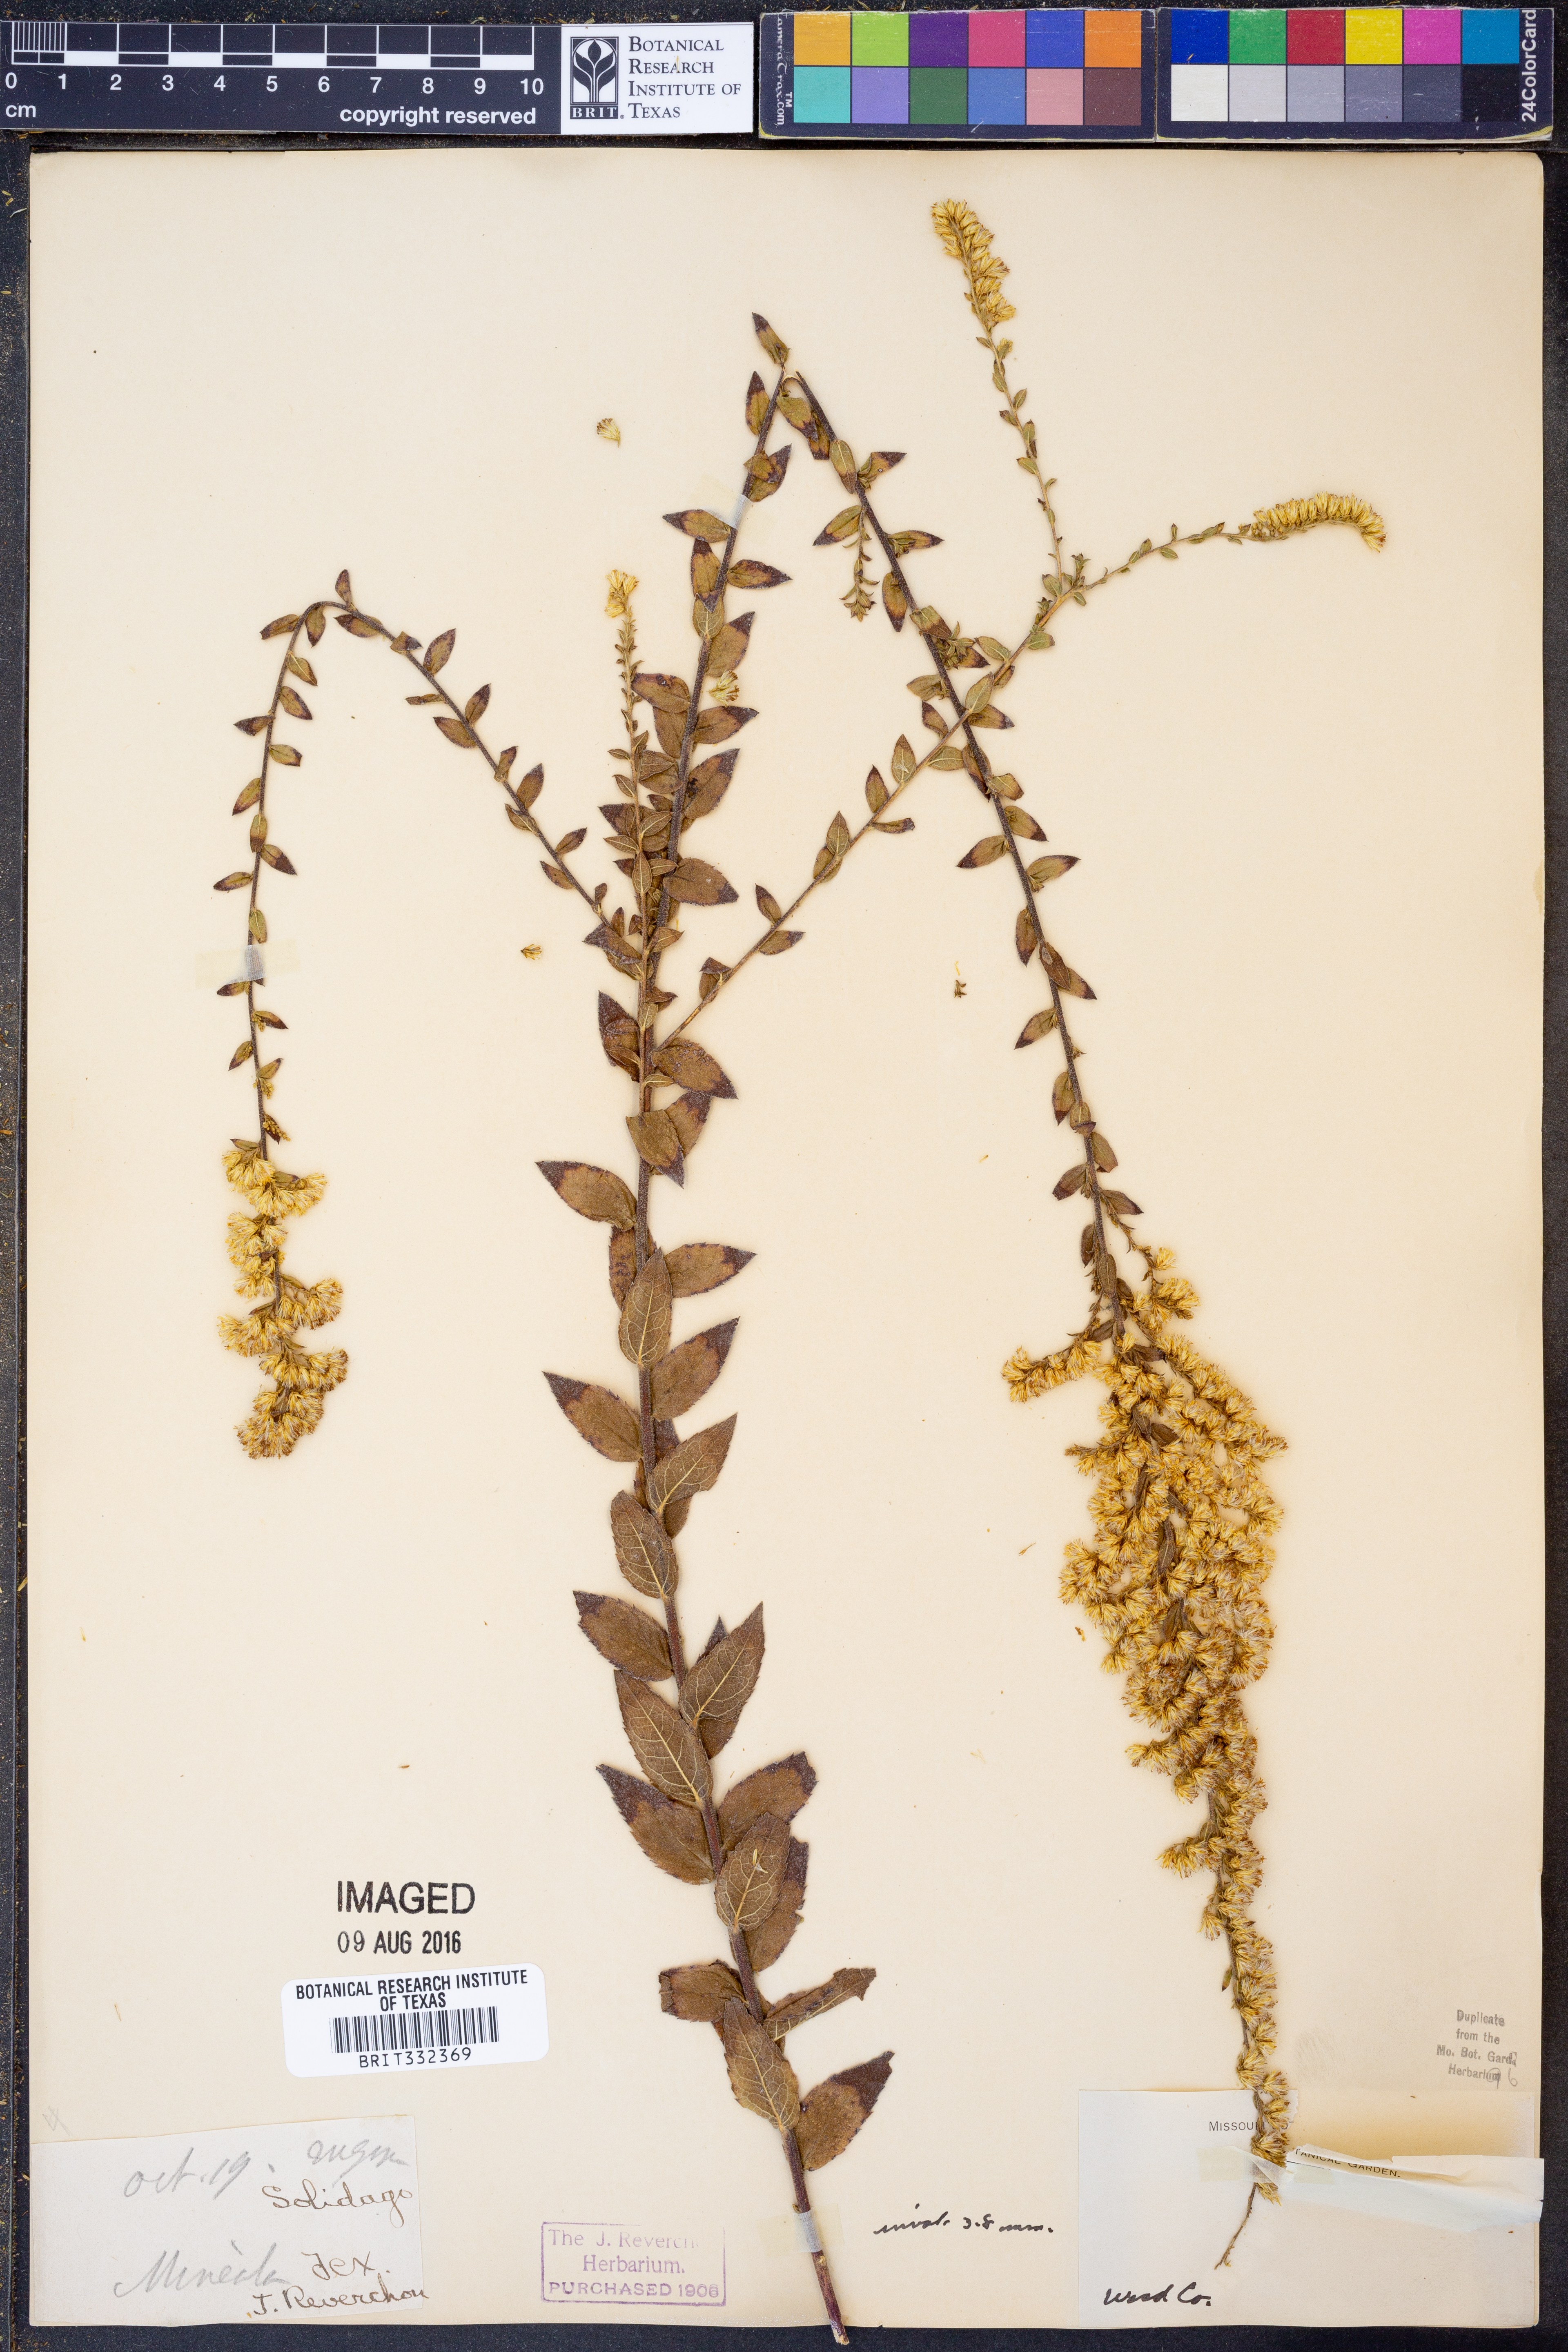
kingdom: Plantae
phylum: Tracheophyta
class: Magnoliopsida
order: Asterales
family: Asteraceae
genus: Solidago
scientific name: Solidago
